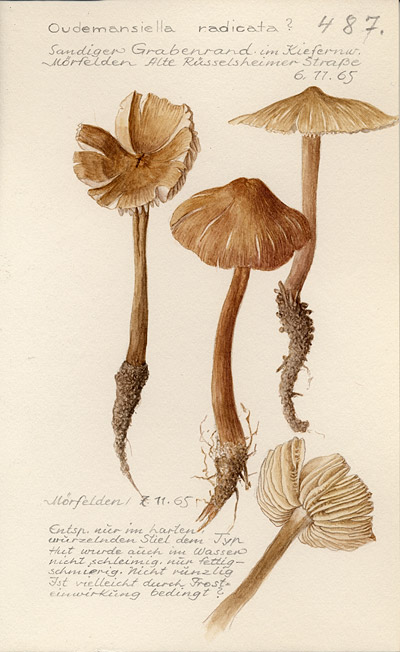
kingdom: Fungi
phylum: Basidiomycota
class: Agaricomycetes
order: Agaricales
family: Physalacriaceae
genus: Hymenopellis
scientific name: Hymenopellis radicata
